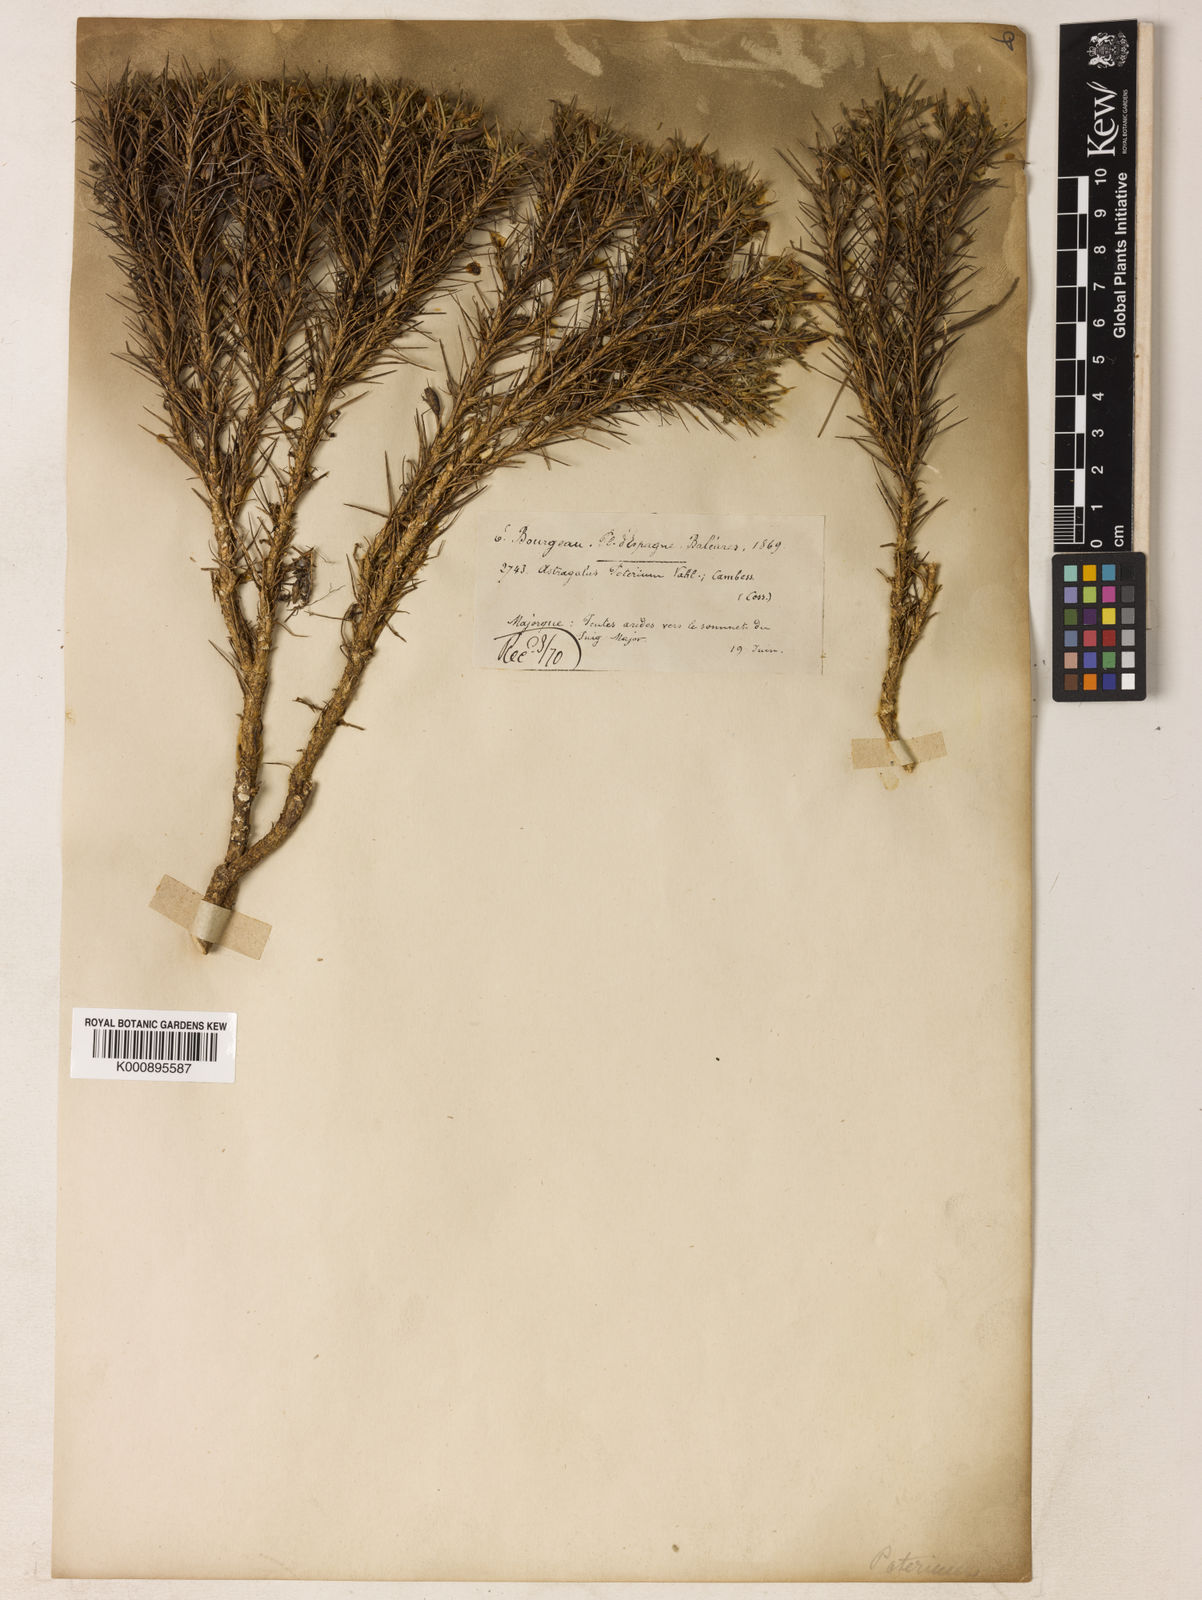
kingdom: Plantae
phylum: Tracheophyta
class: Magnoliopsida
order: Fabales
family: Fabaceae
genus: Astragalus
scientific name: Astragalus balearicus
